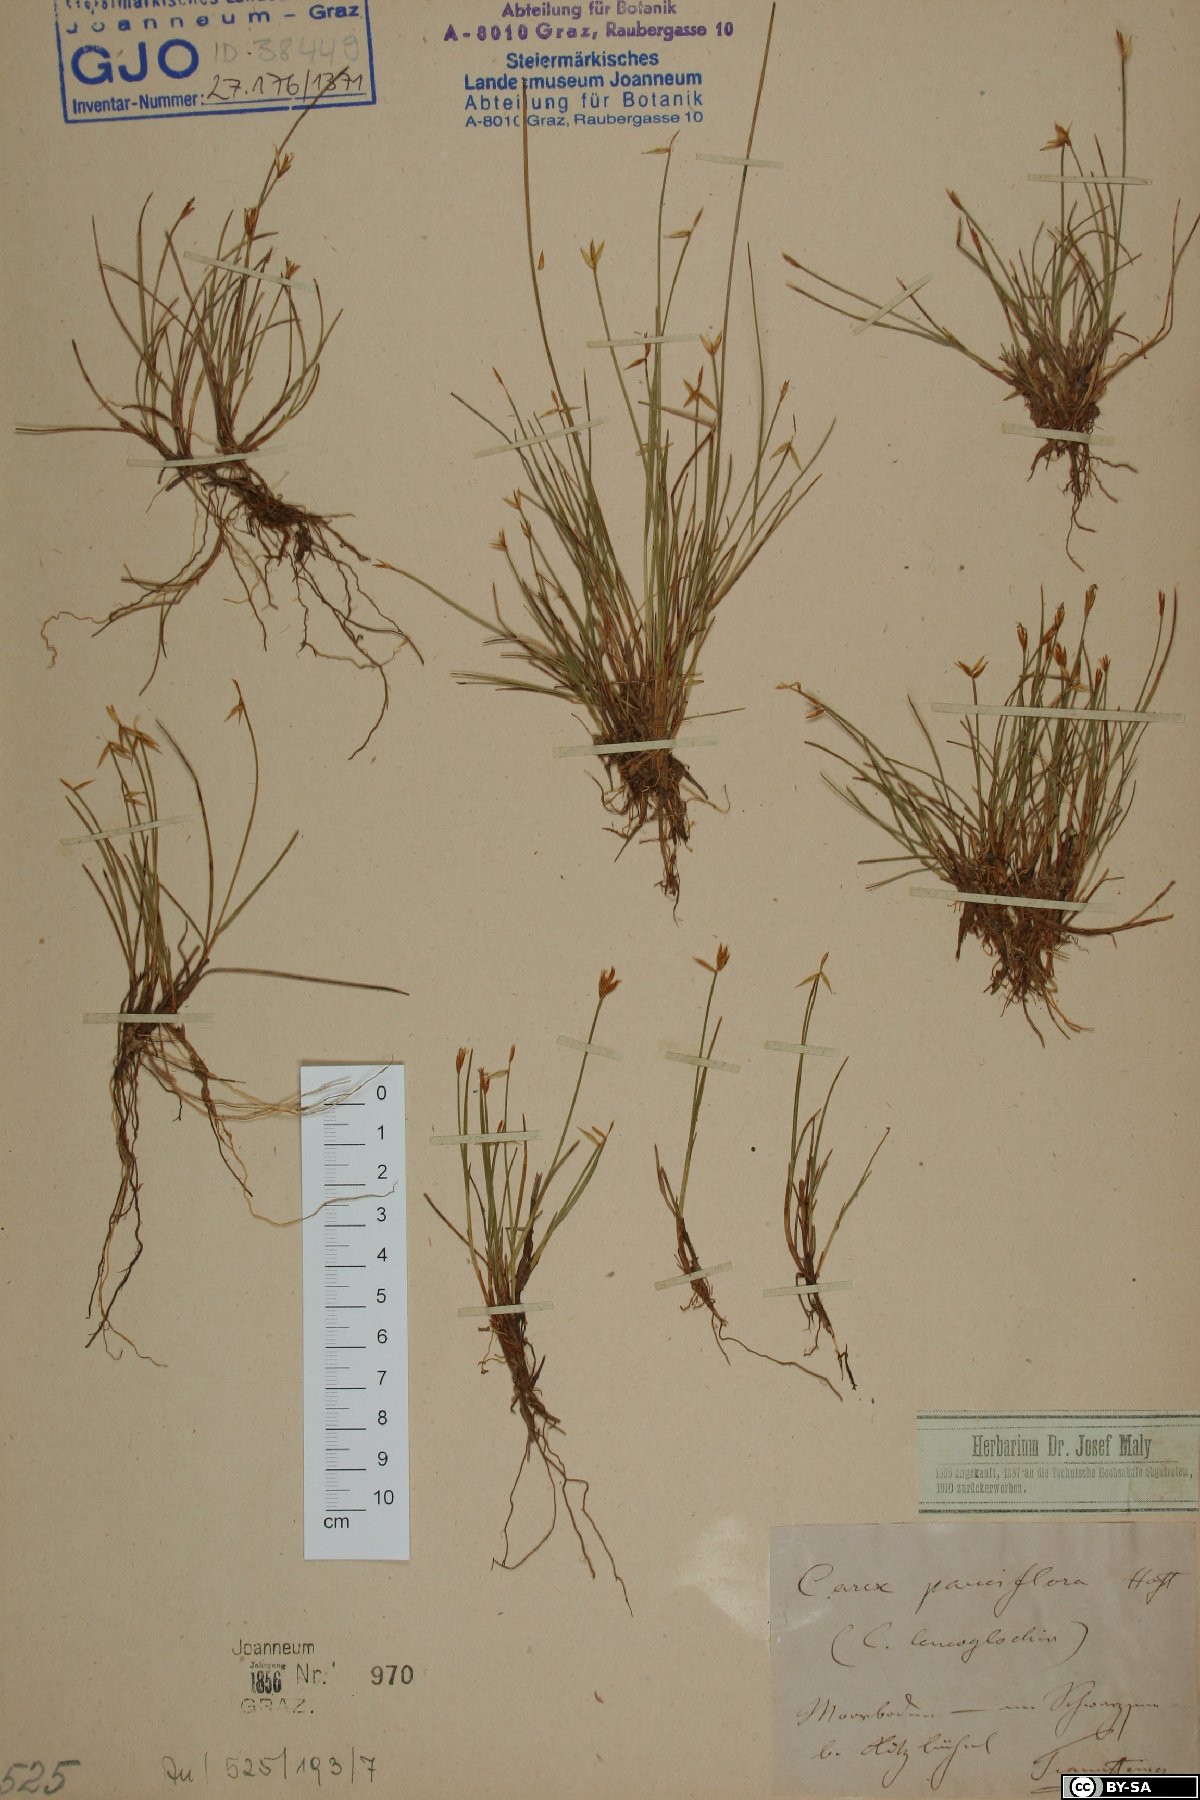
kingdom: Plantae
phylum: Tracheophyta
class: Liliopsida
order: Poales
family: Cyperaceae
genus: Carex
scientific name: Carex pauciflora
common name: Few-flowered sedge
